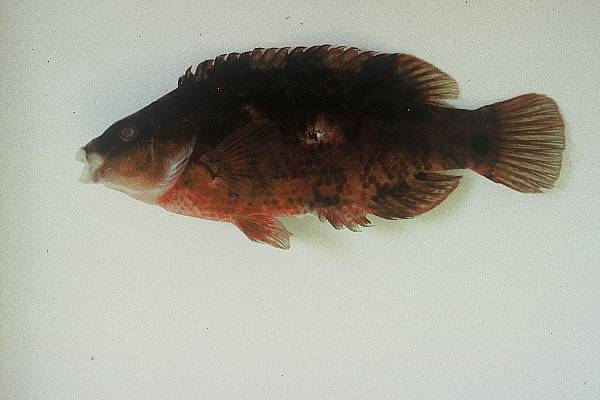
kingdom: Animalia
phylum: Chordata
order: Perciformes
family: Labridae
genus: Symphodus
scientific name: Symphodus trutta
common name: Emerald wrasse
